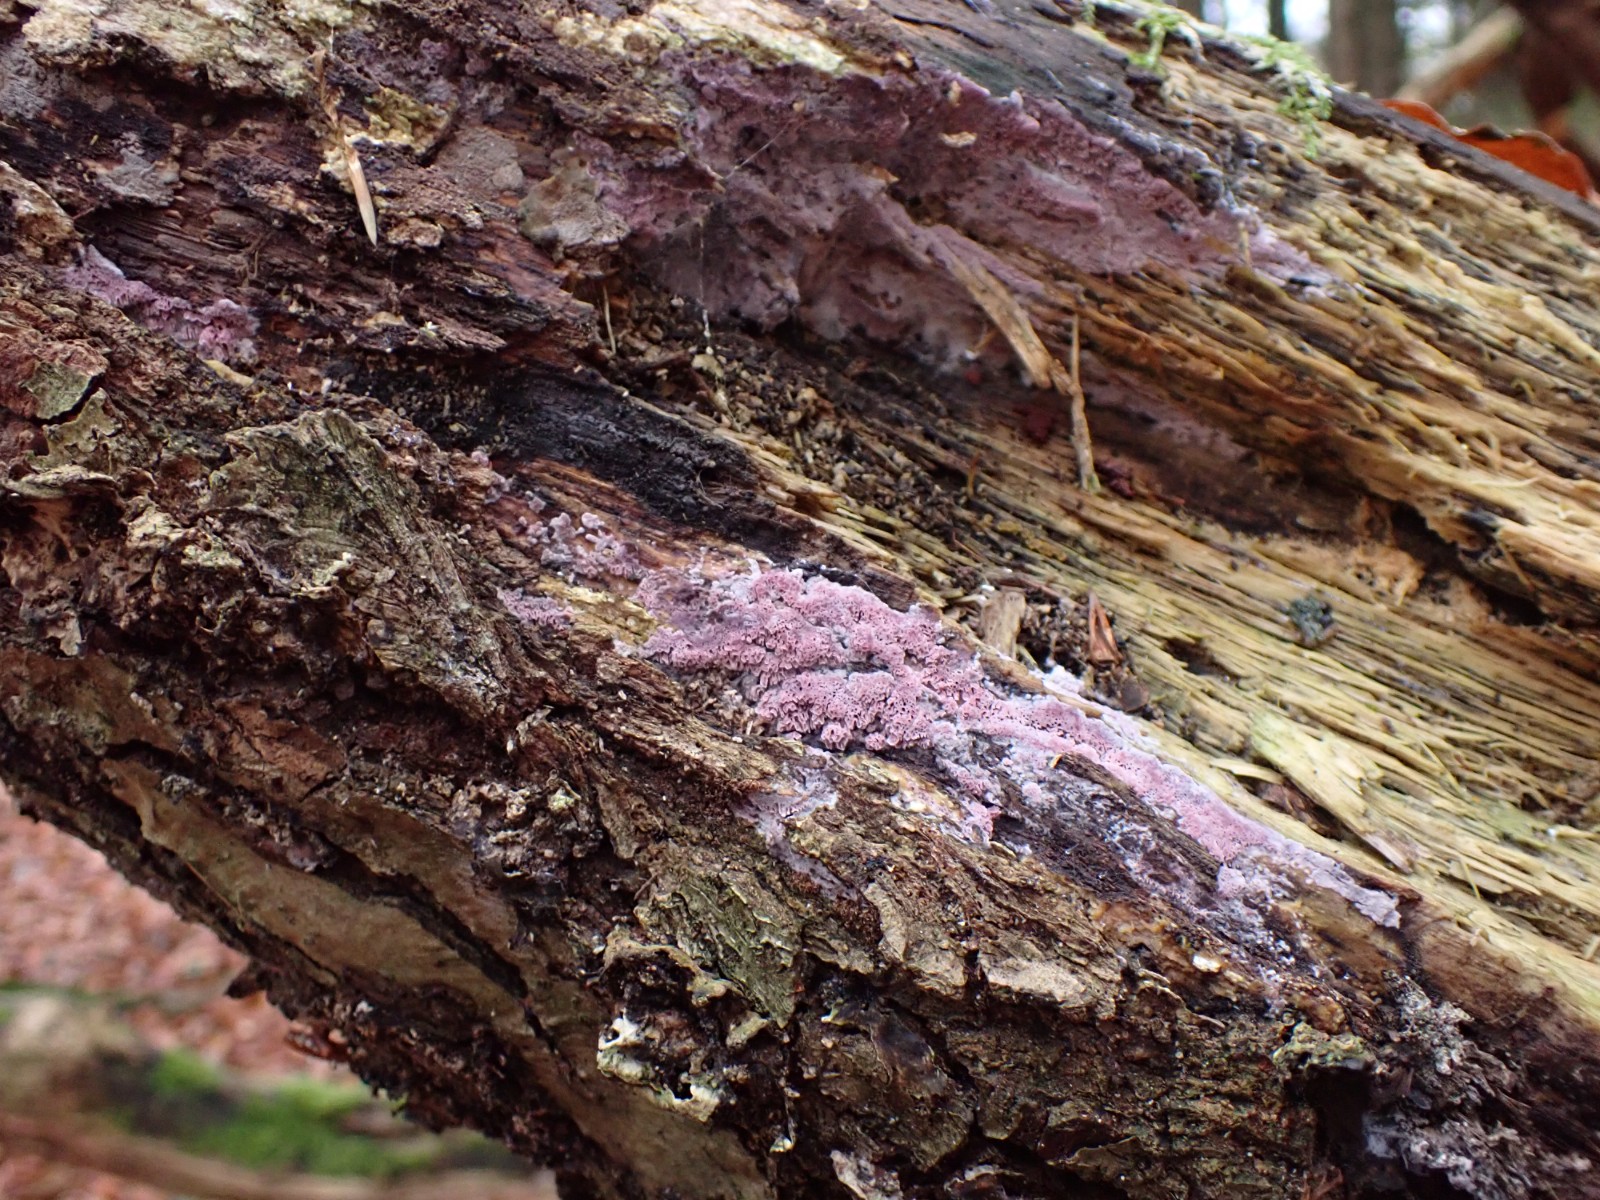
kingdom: Fungi
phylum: Basidiomycota
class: Agaricomycetes
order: Polyporales
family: Irpicaceae
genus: Ceriporia
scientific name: Ceriporia
